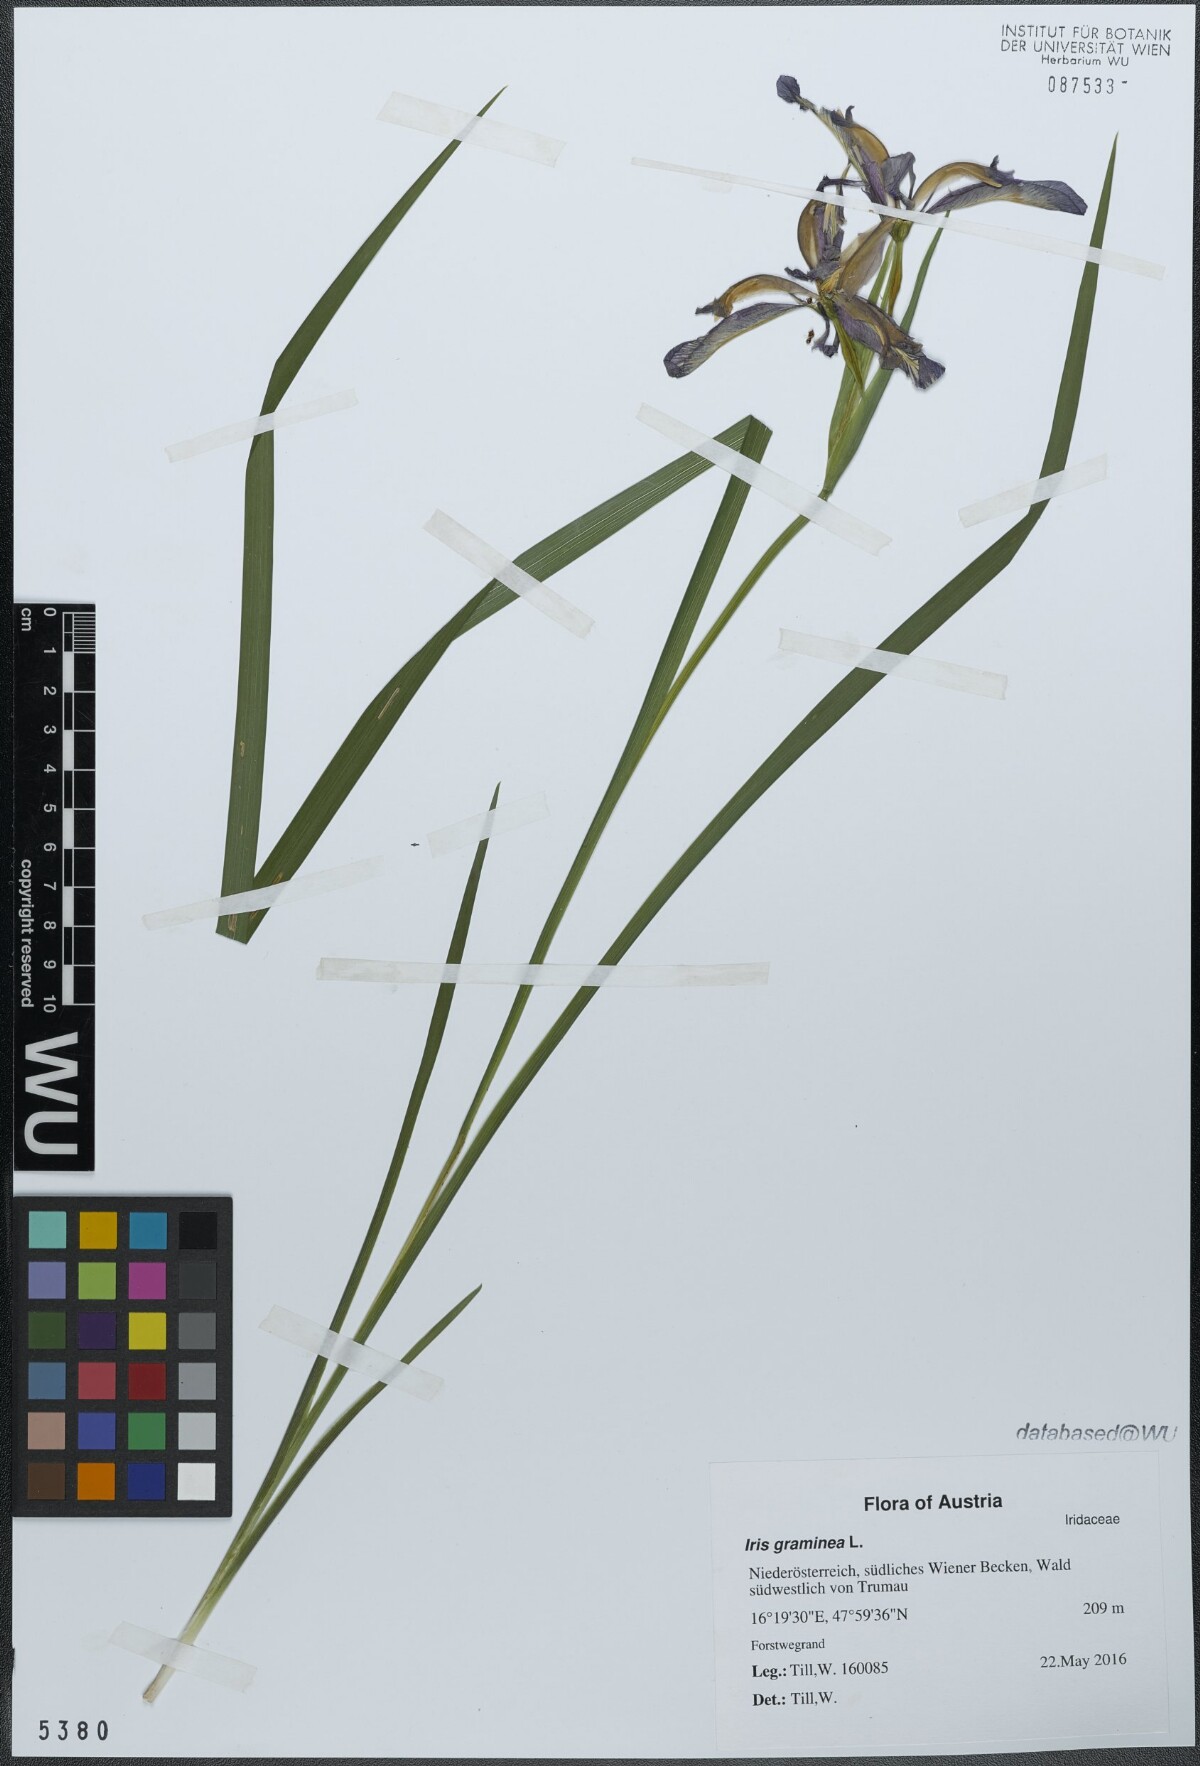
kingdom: Plantae
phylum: Tracheophyta
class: Liliopsida
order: Asparagales
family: Iridaceae
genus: Iris
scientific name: Iris graminea
